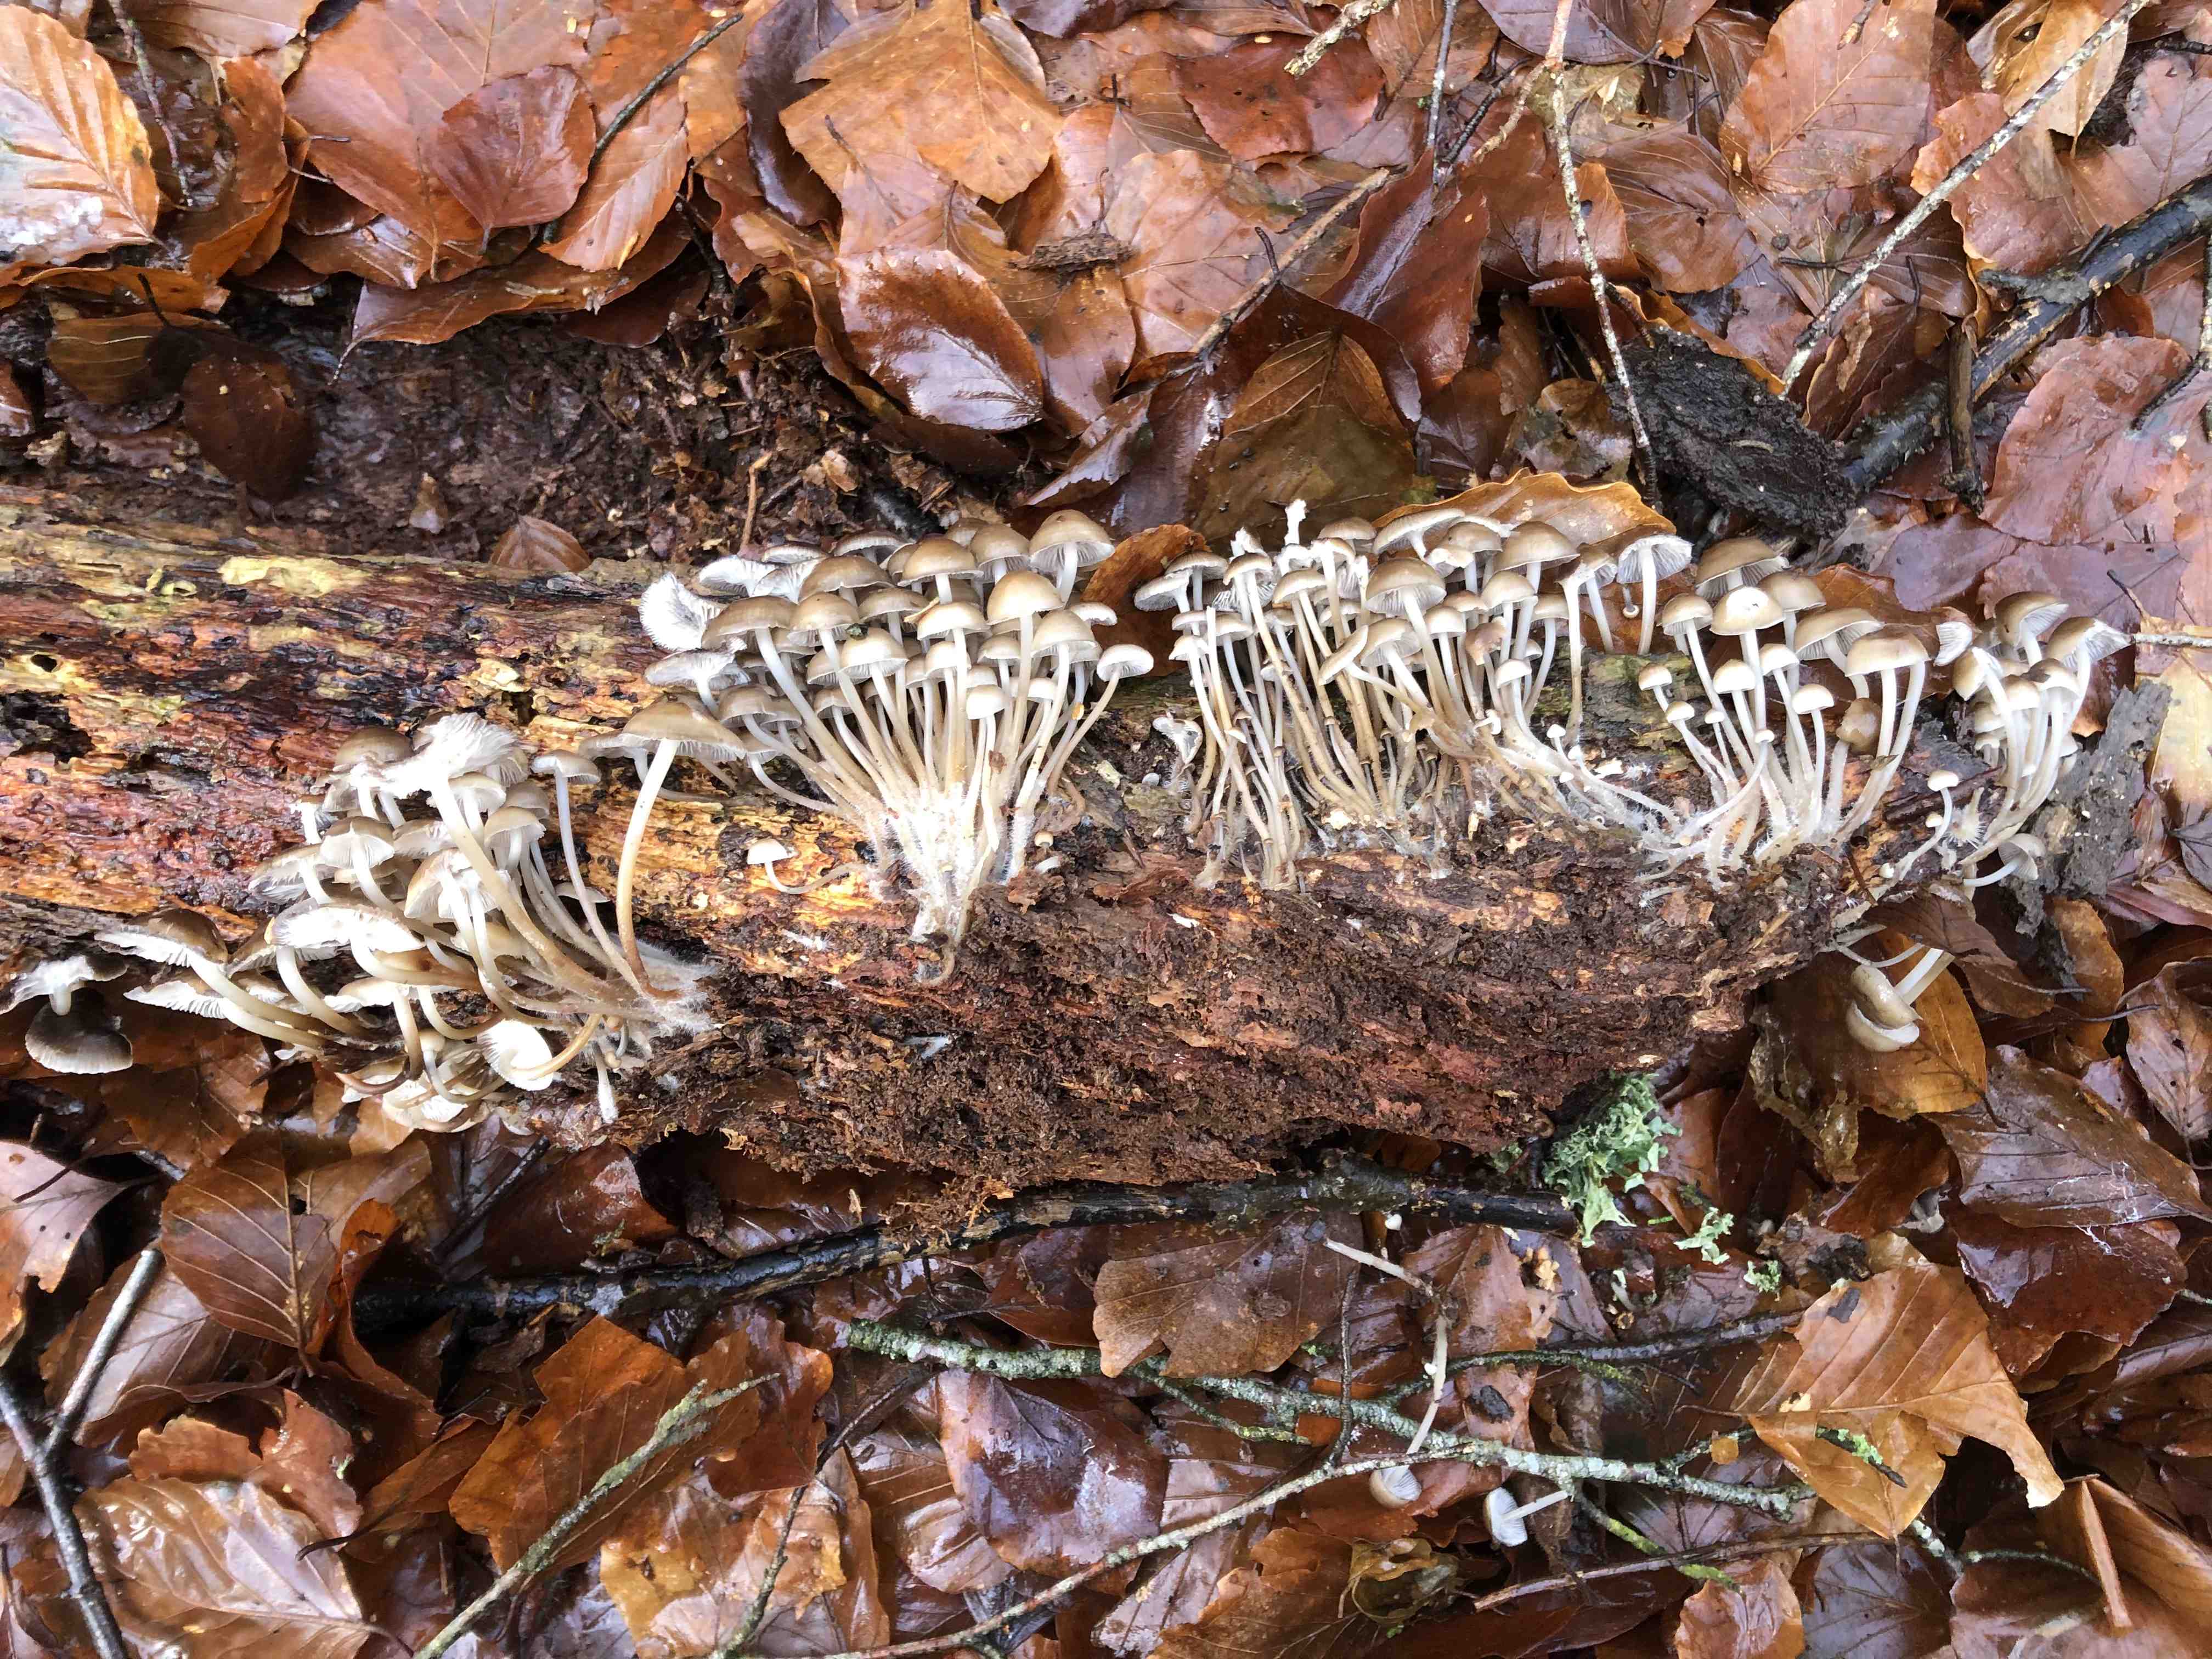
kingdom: Fungi
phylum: Basidiomycota
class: Agaricomycetes
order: Agaricales
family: Mycenaceae
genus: Mycena
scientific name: Mycena tintinnabulum
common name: vinter-huesvamp
